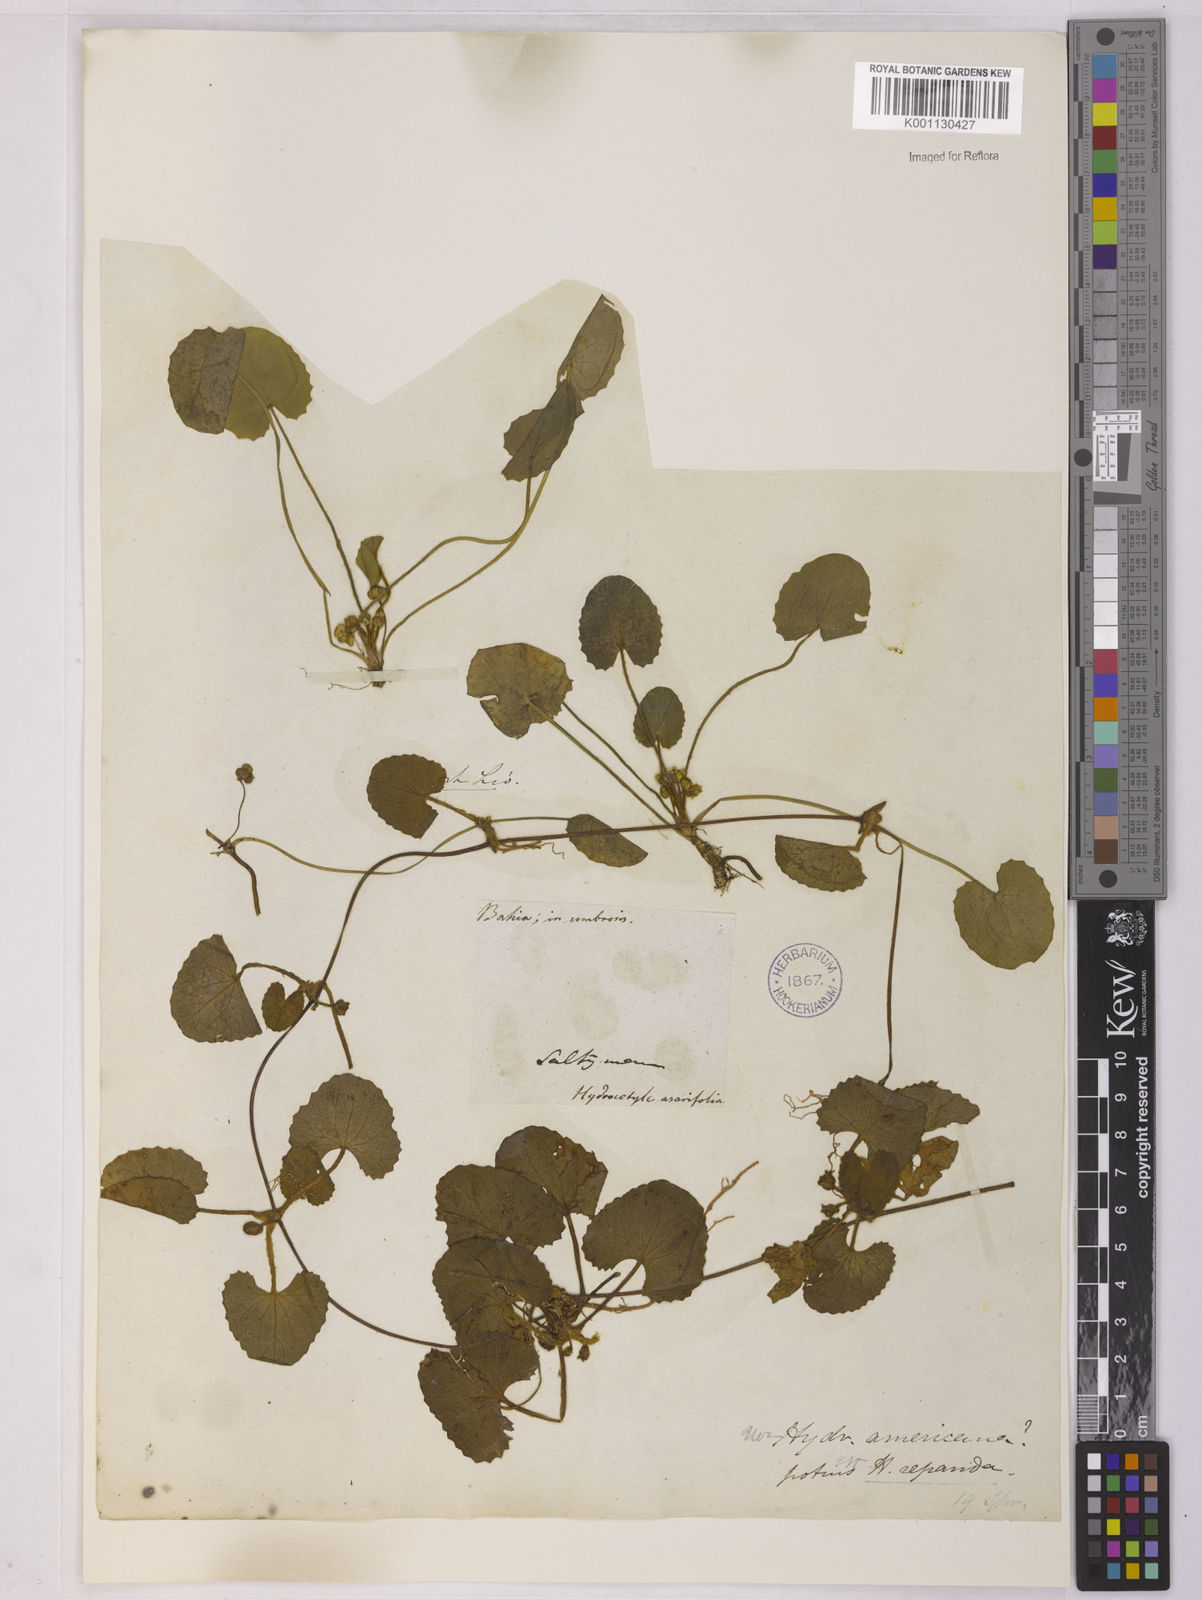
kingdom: Plantae
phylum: Tracheophyta
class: Magnoliopsida
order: Apiales
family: Apiaceae
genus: Centella
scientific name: Centella erecta
